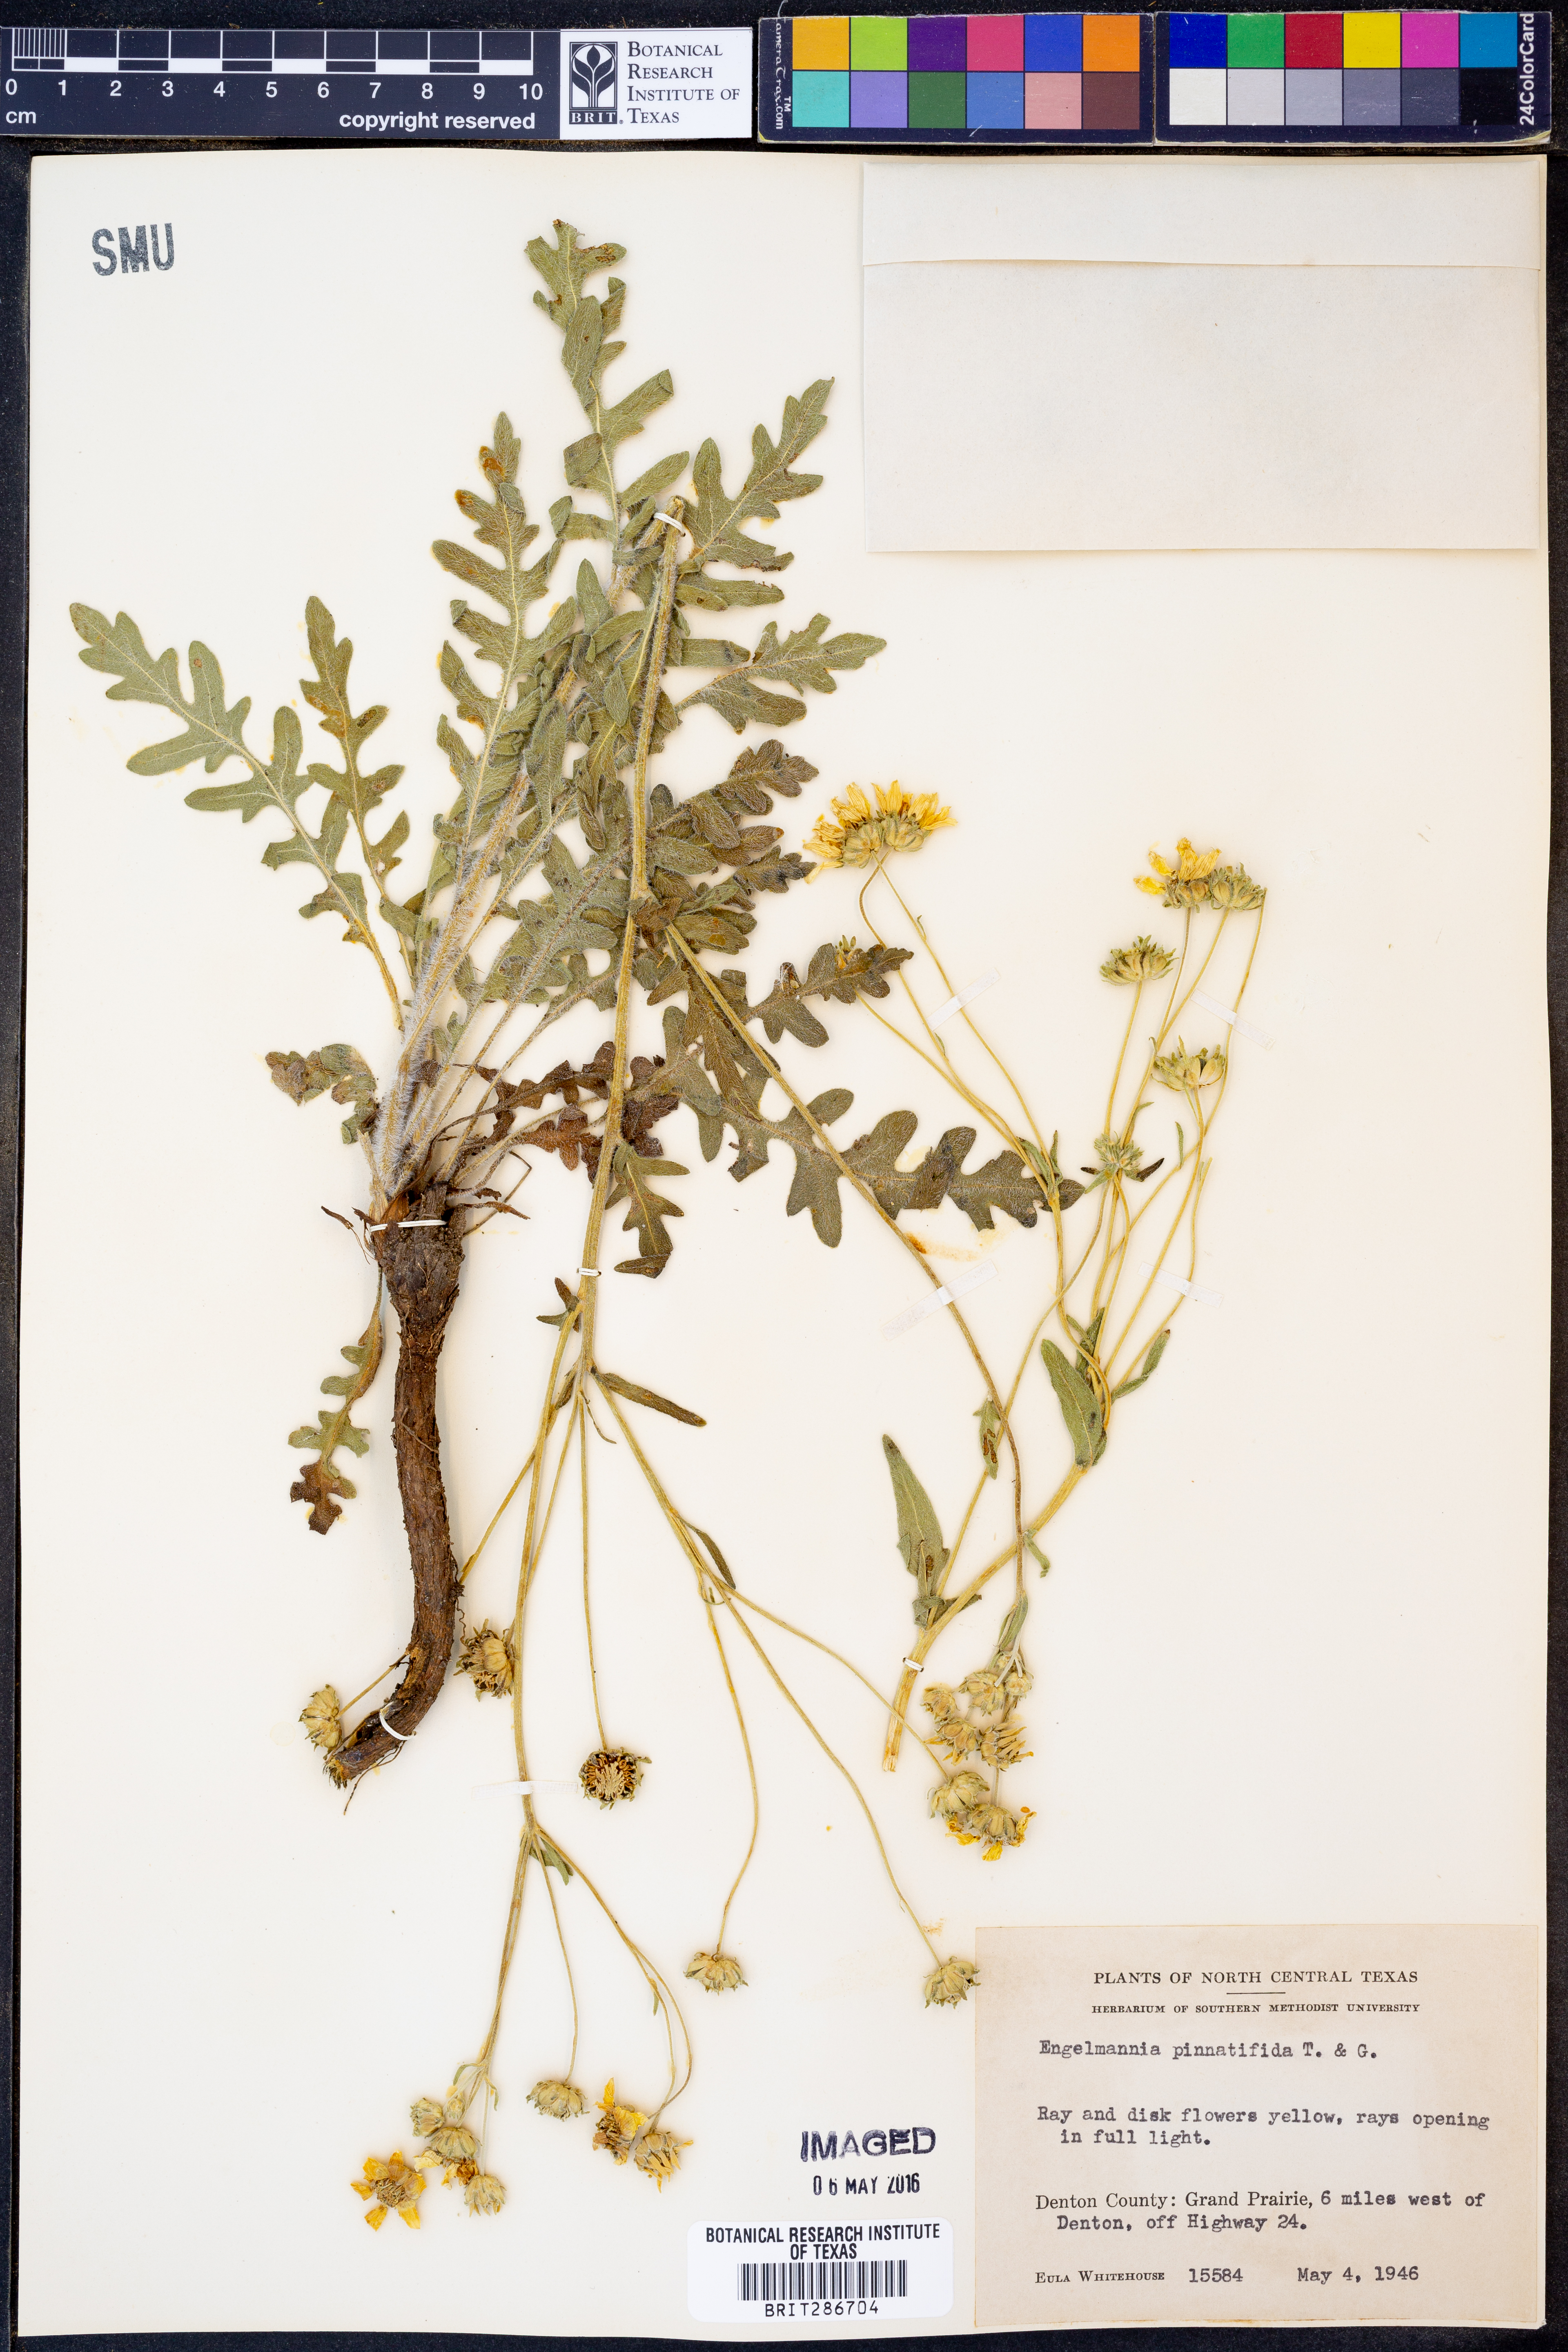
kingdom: Plantae
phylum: Tracheophyta
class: Magnoliopsida
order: Asterales
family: Asteraceae
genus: Engelmannia
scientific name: Engelmannia peristenia
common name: Engelmann's daisy
